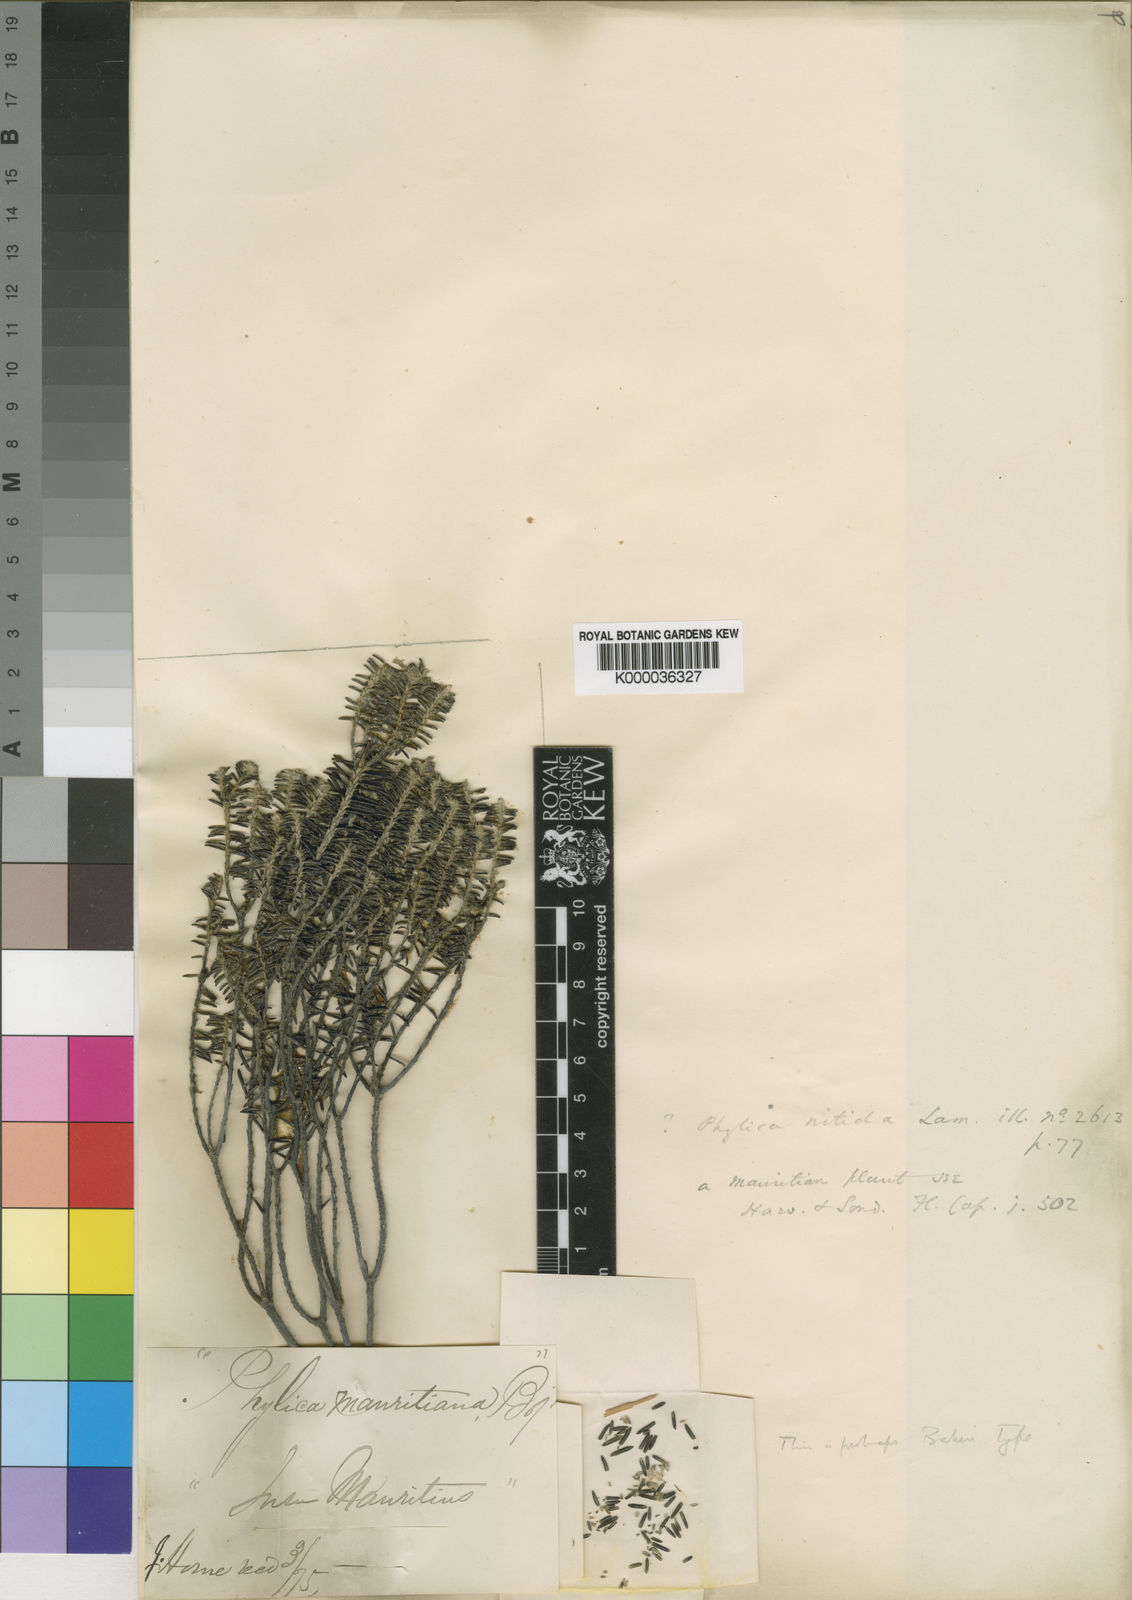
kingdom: Plantae
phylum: Tracheophyta
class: Magnoliopsida
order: Rosales
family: Rhamnaceae
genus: Phylica
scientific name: Phylica
